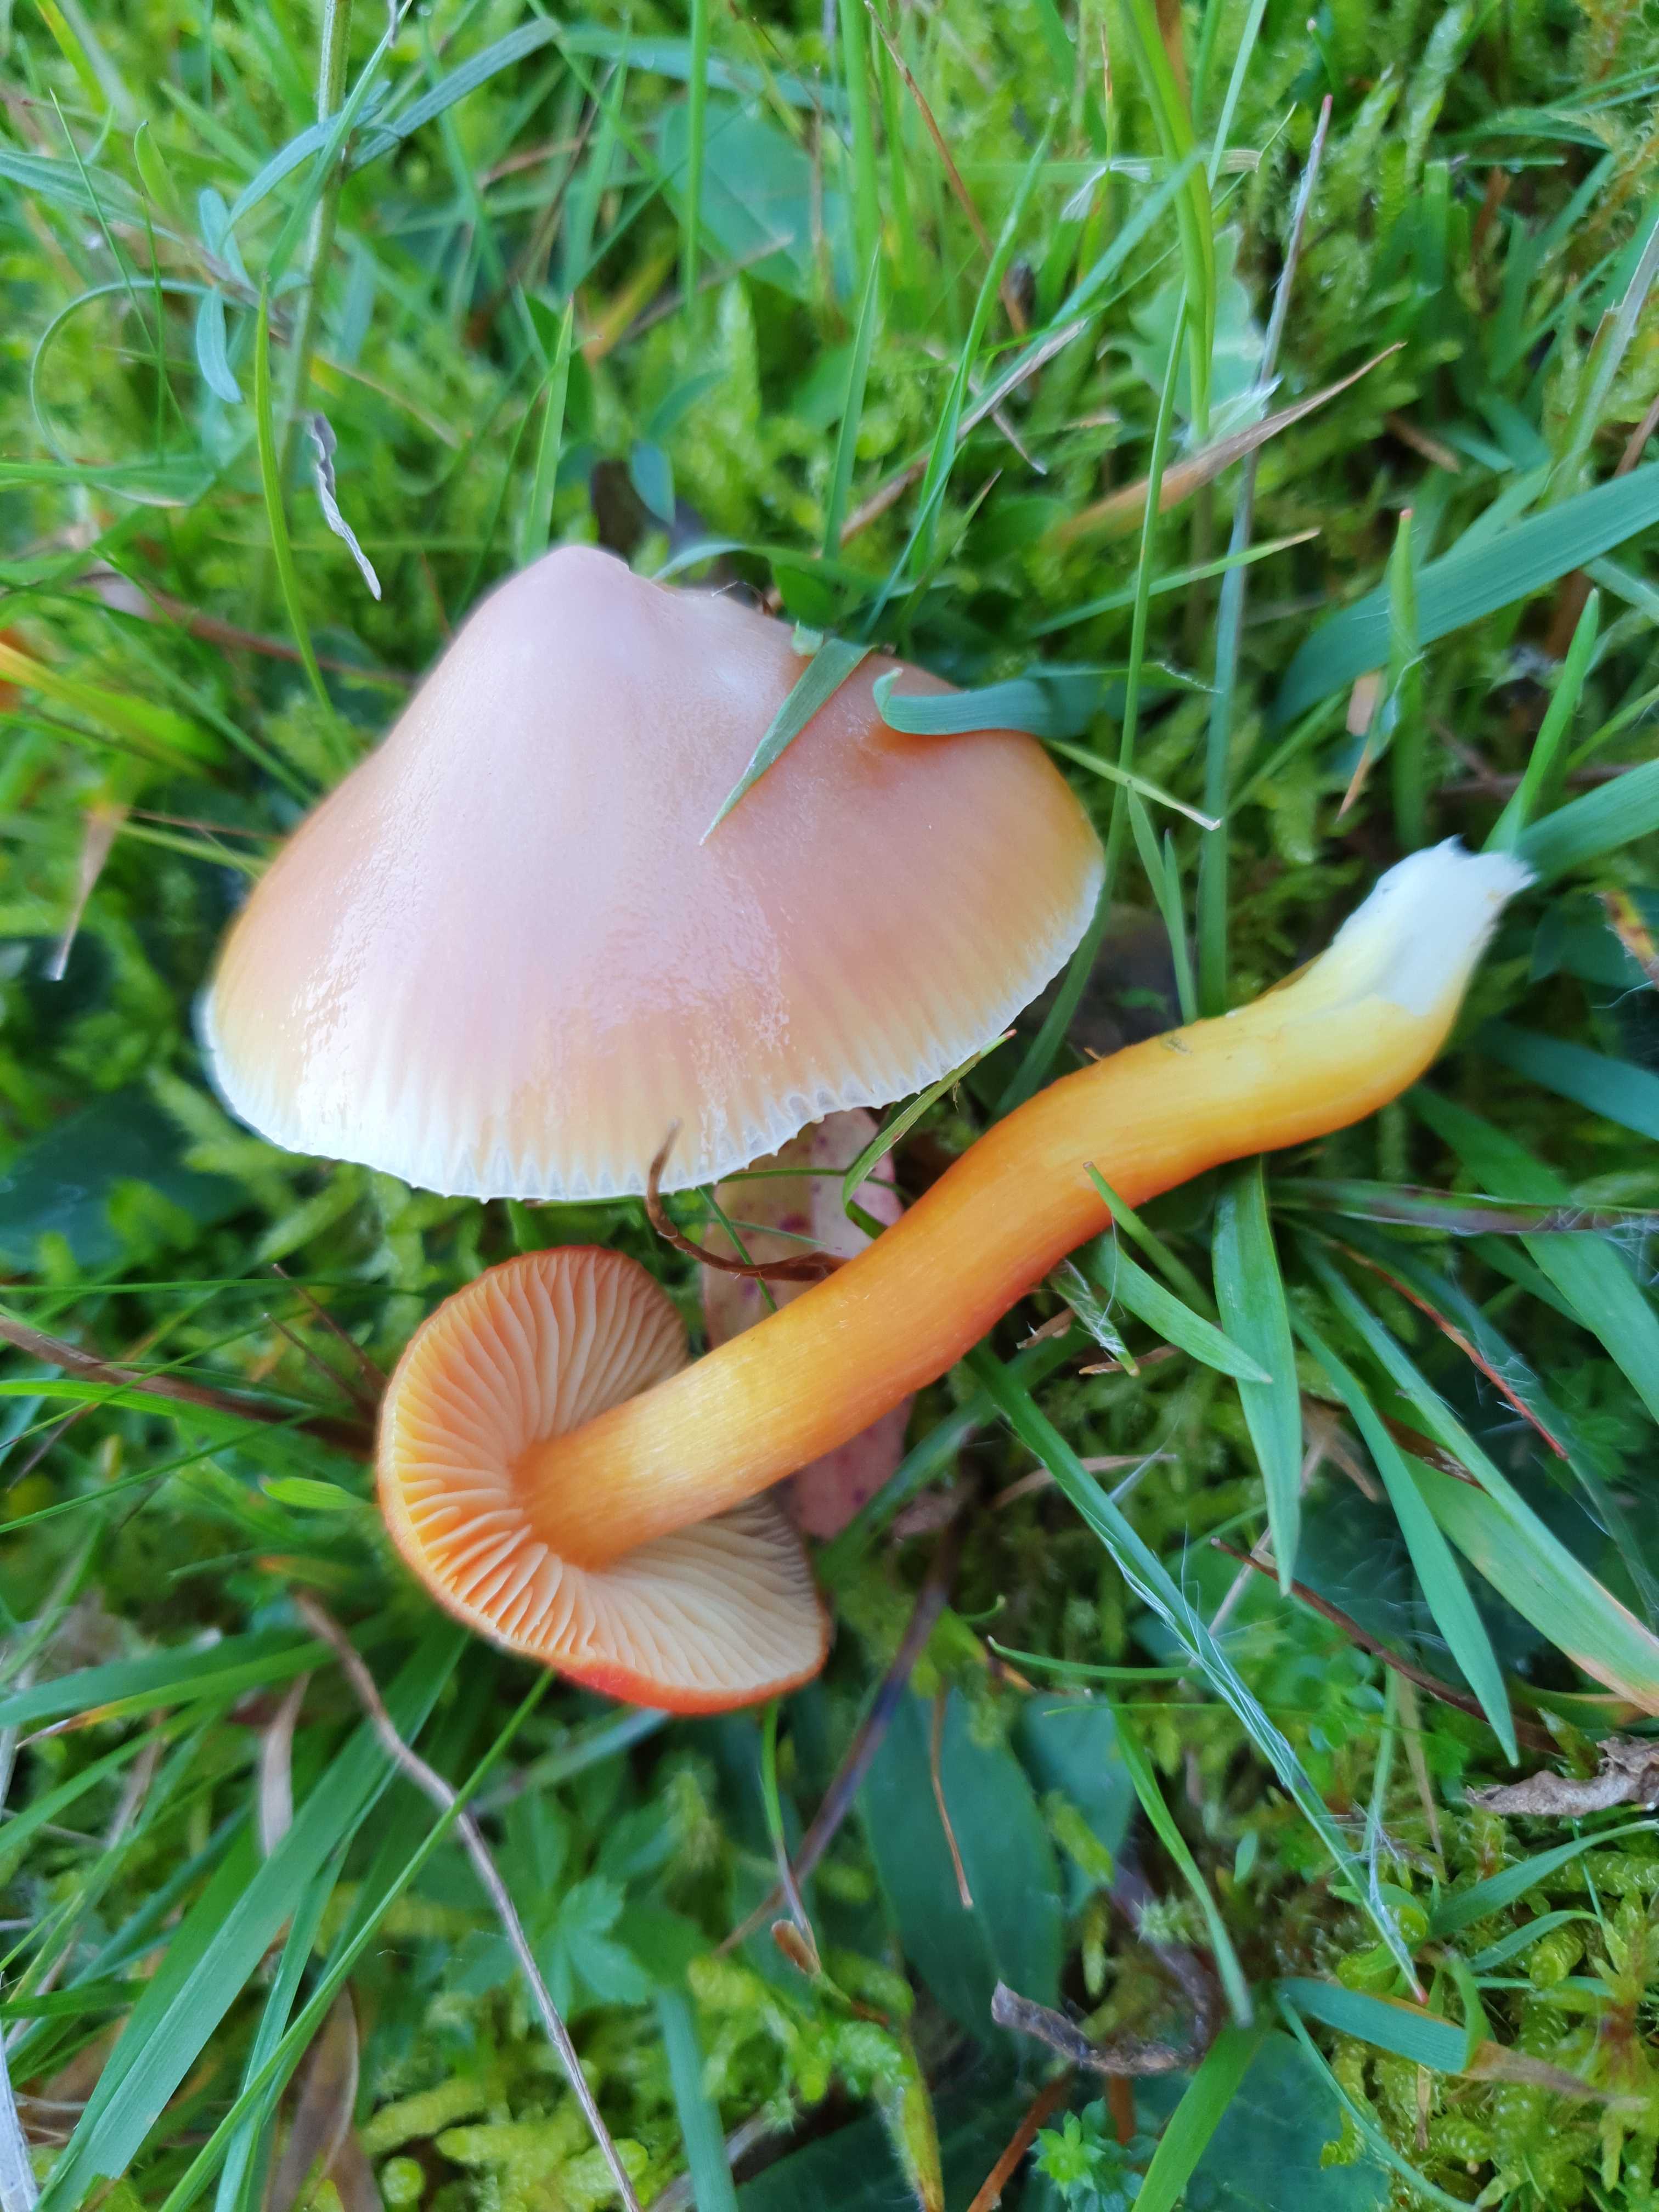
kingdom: Fungi
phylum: Basidiomycota
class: Agaricomycetes
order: Agaricales
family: Hygrophoraceae
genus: Hygrocybe
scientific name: Hygrocybe punicea
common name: skarlagen-vokshat
